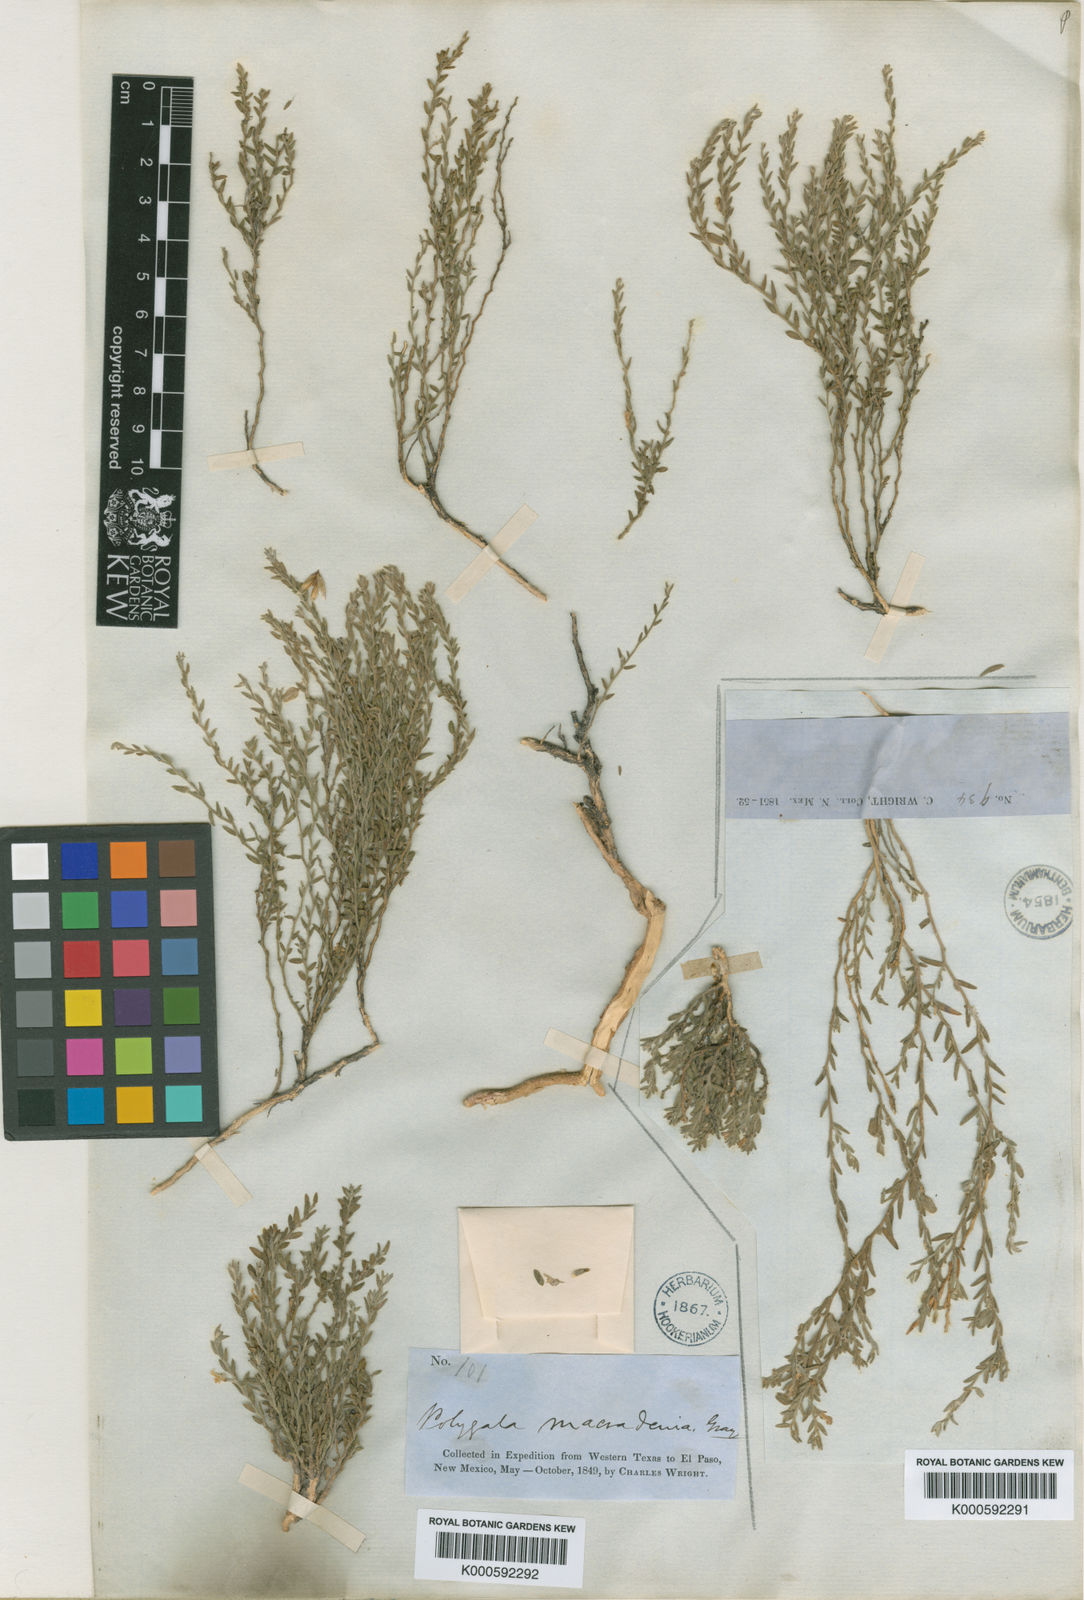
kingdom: Plantae
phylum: Tracheophyta
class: Magnoliopsida
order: Fabales
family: Polygalaceae
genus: Hebecarpa
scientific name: Hebecarpa macradenia
